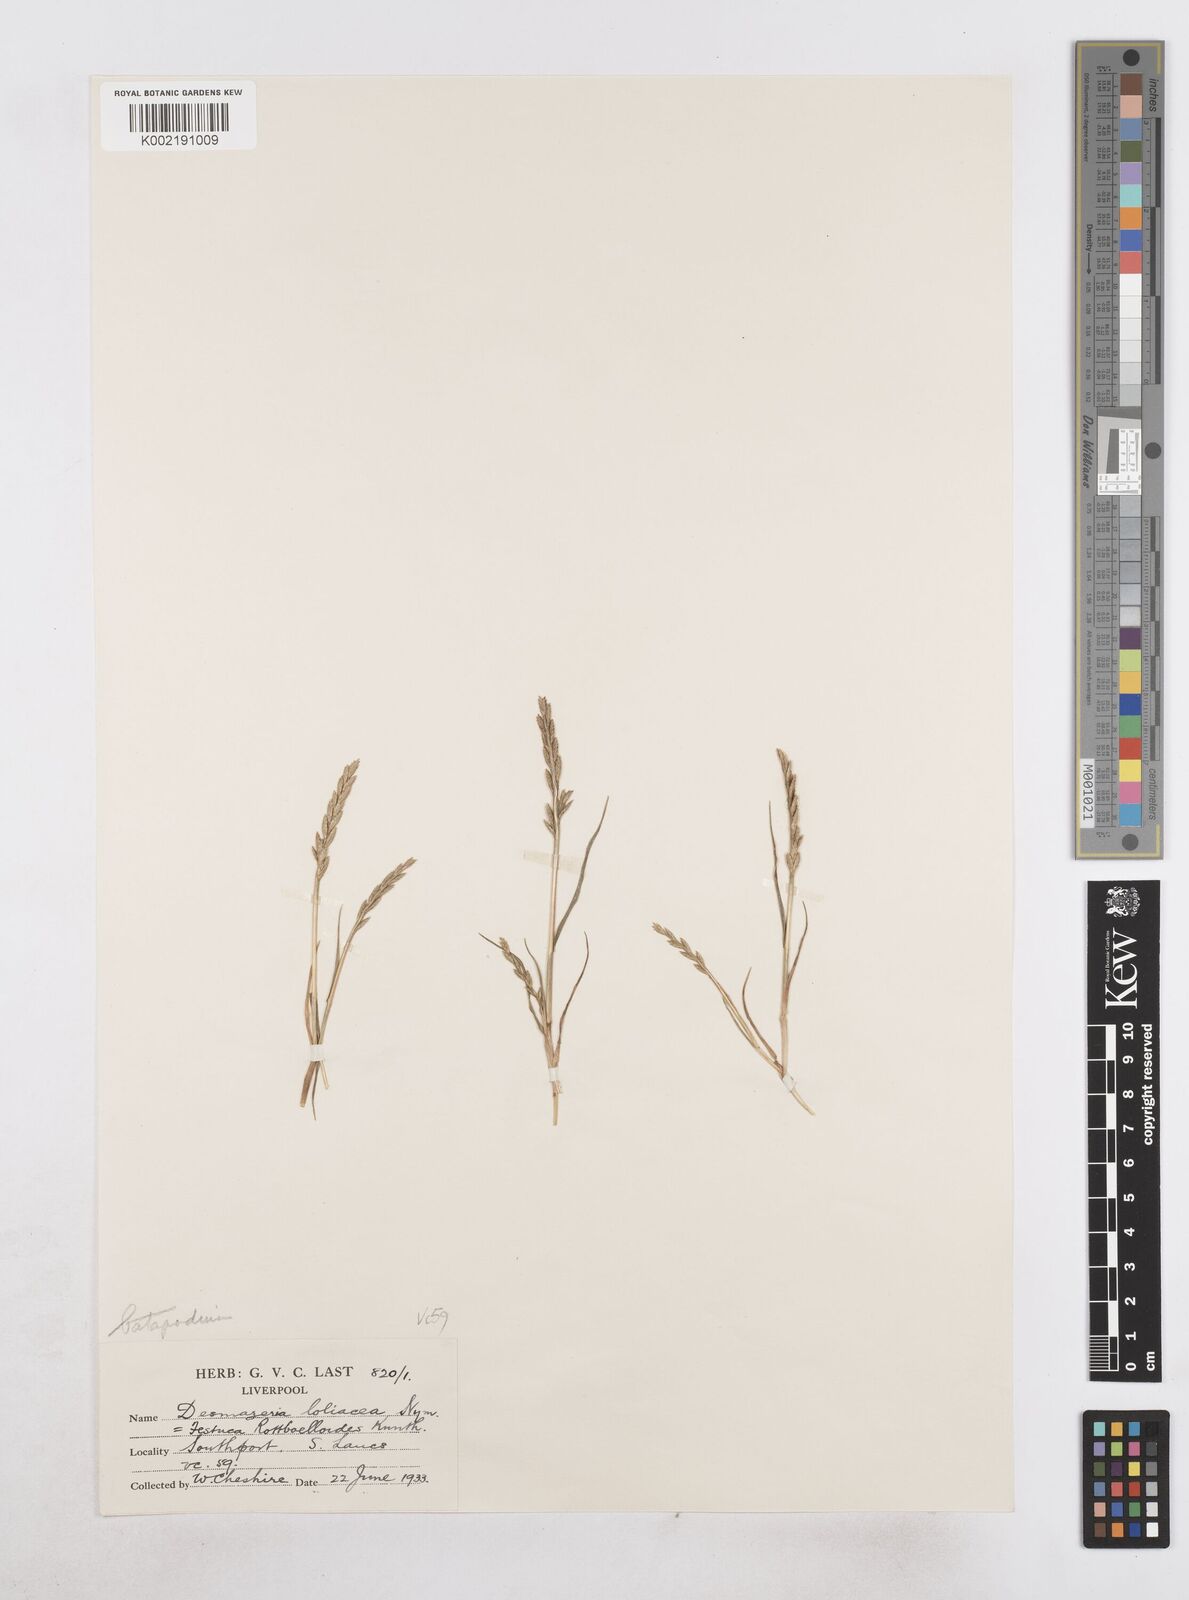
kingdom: Plantae
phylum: Tracheophyta
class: Liliopsida
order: Poales
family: Poaceae
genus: Catapodium
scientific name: Catapodium marinum
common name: Sea fern-grass
